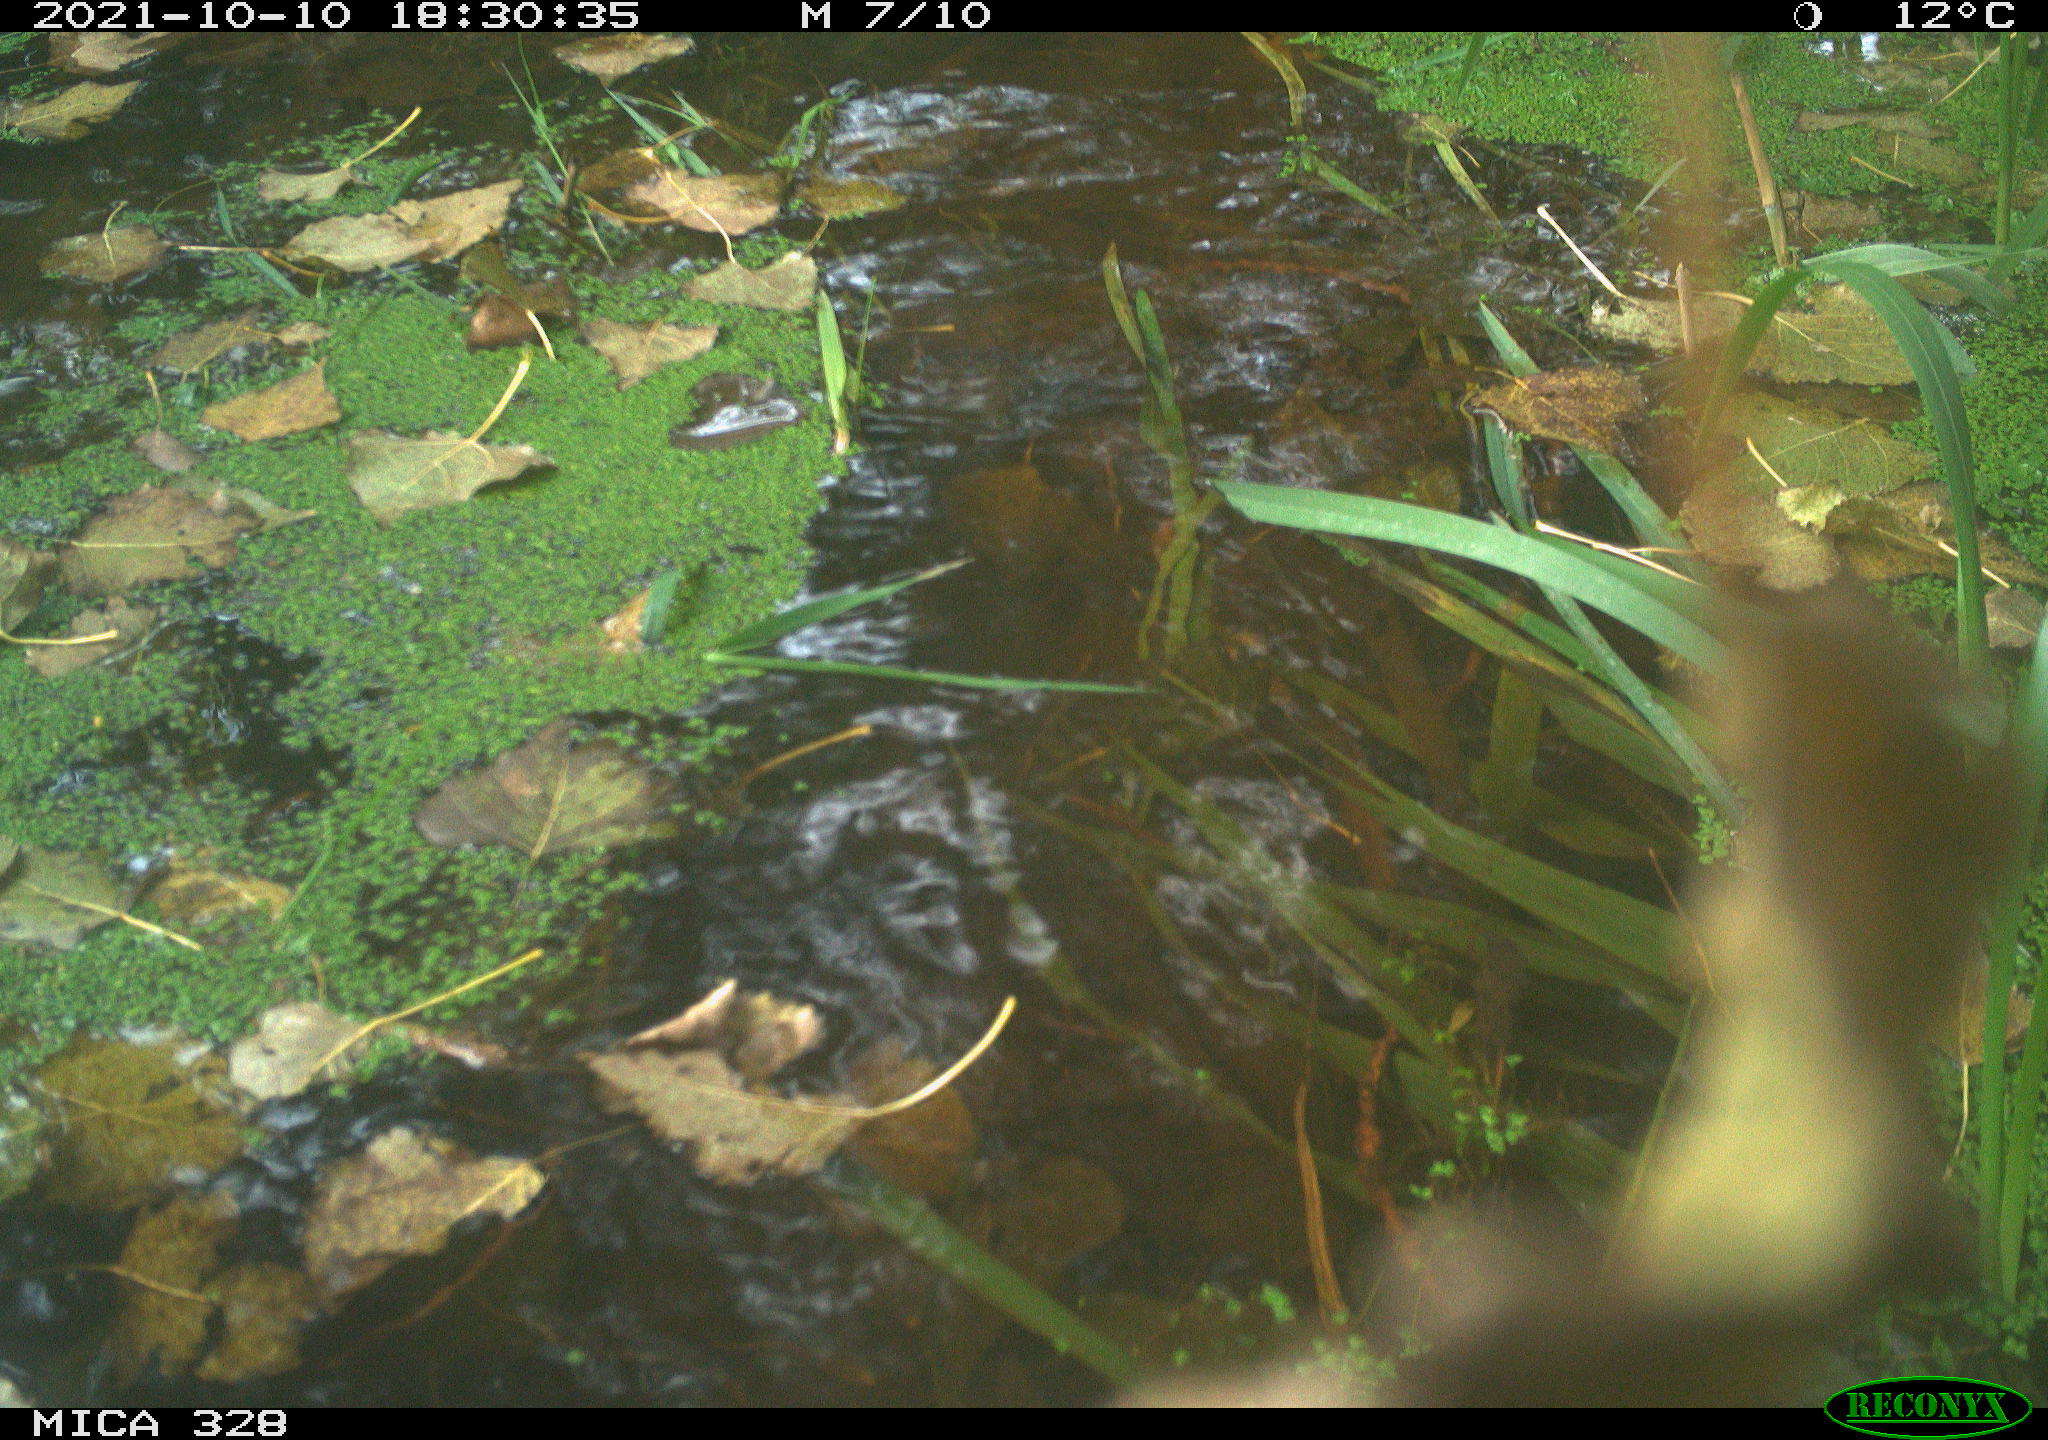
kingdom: Animalia
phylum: Chordata
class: Mammalia
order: Rodentia
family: Cricetidae
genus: Ondatra
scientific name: Ondatra zibethicus
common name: Muskrat
